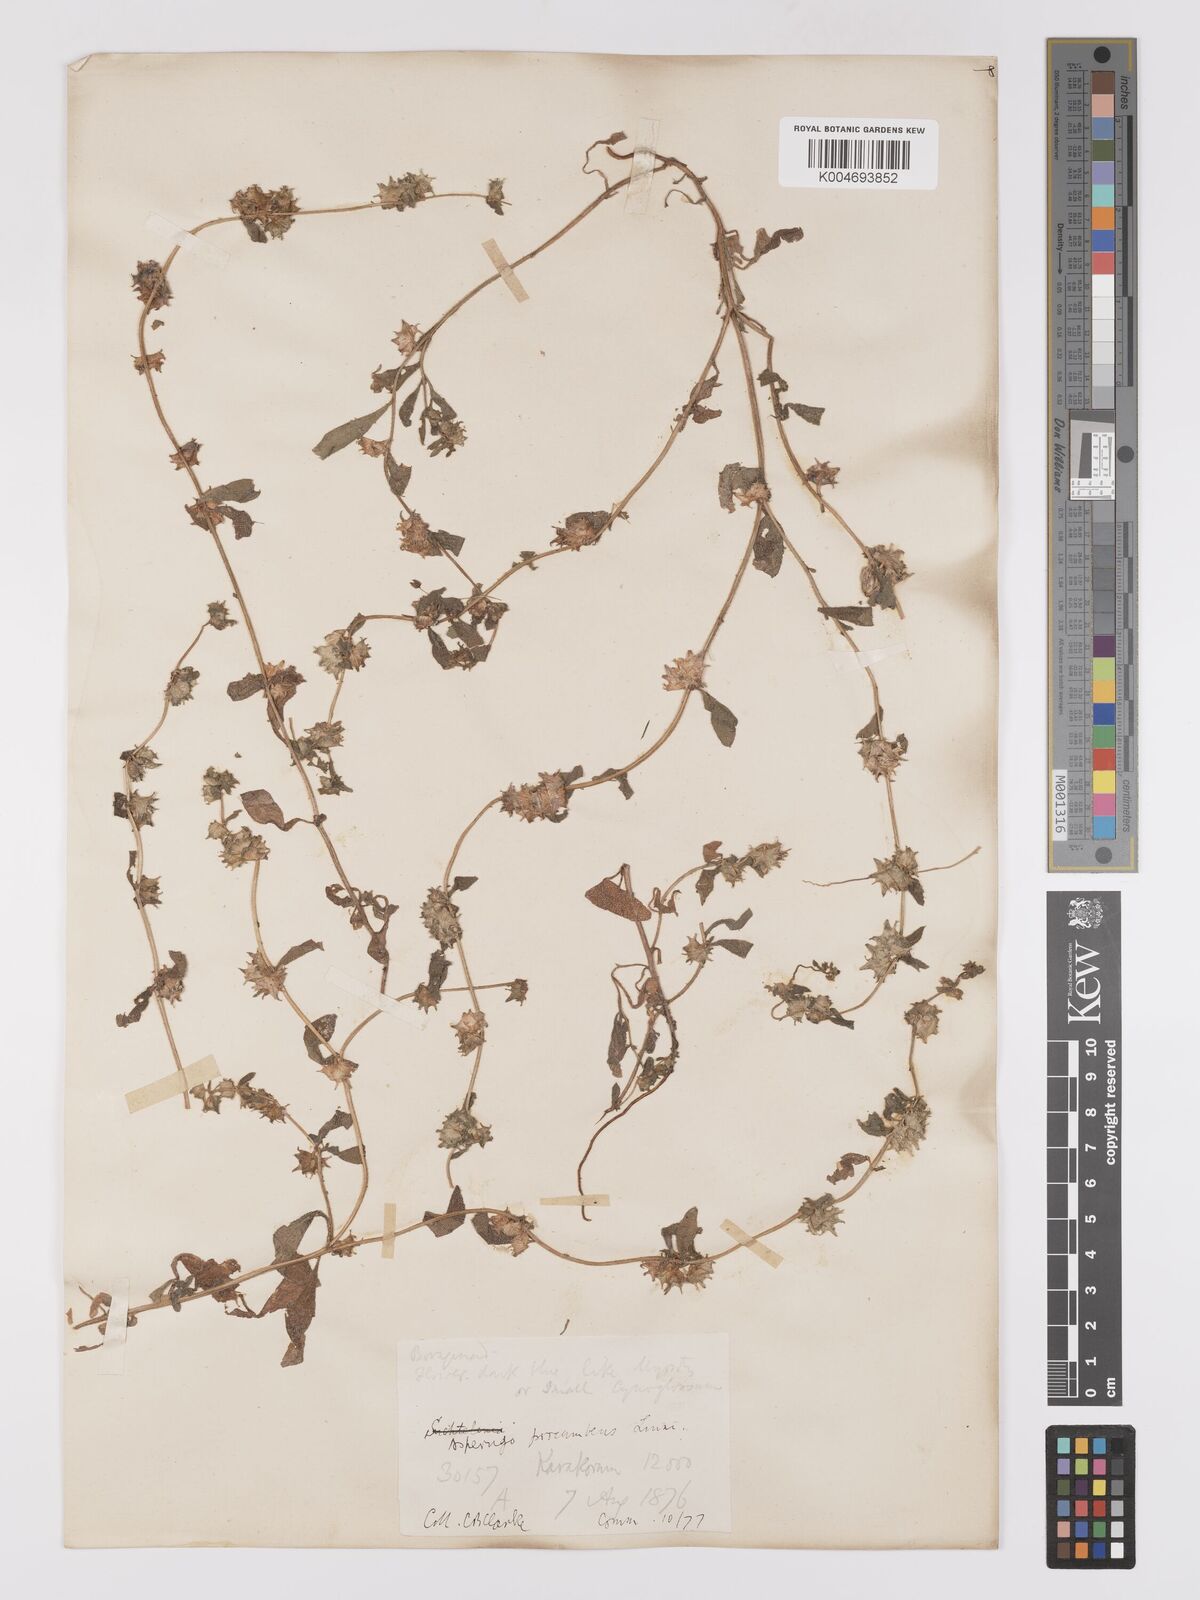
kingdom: Plantae
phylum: Tracheophyta
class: Magnoliopsida
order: Boraginales
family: Boraginaceae
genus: Asperugo
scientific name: Asperugo procumbens
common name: Madwort
